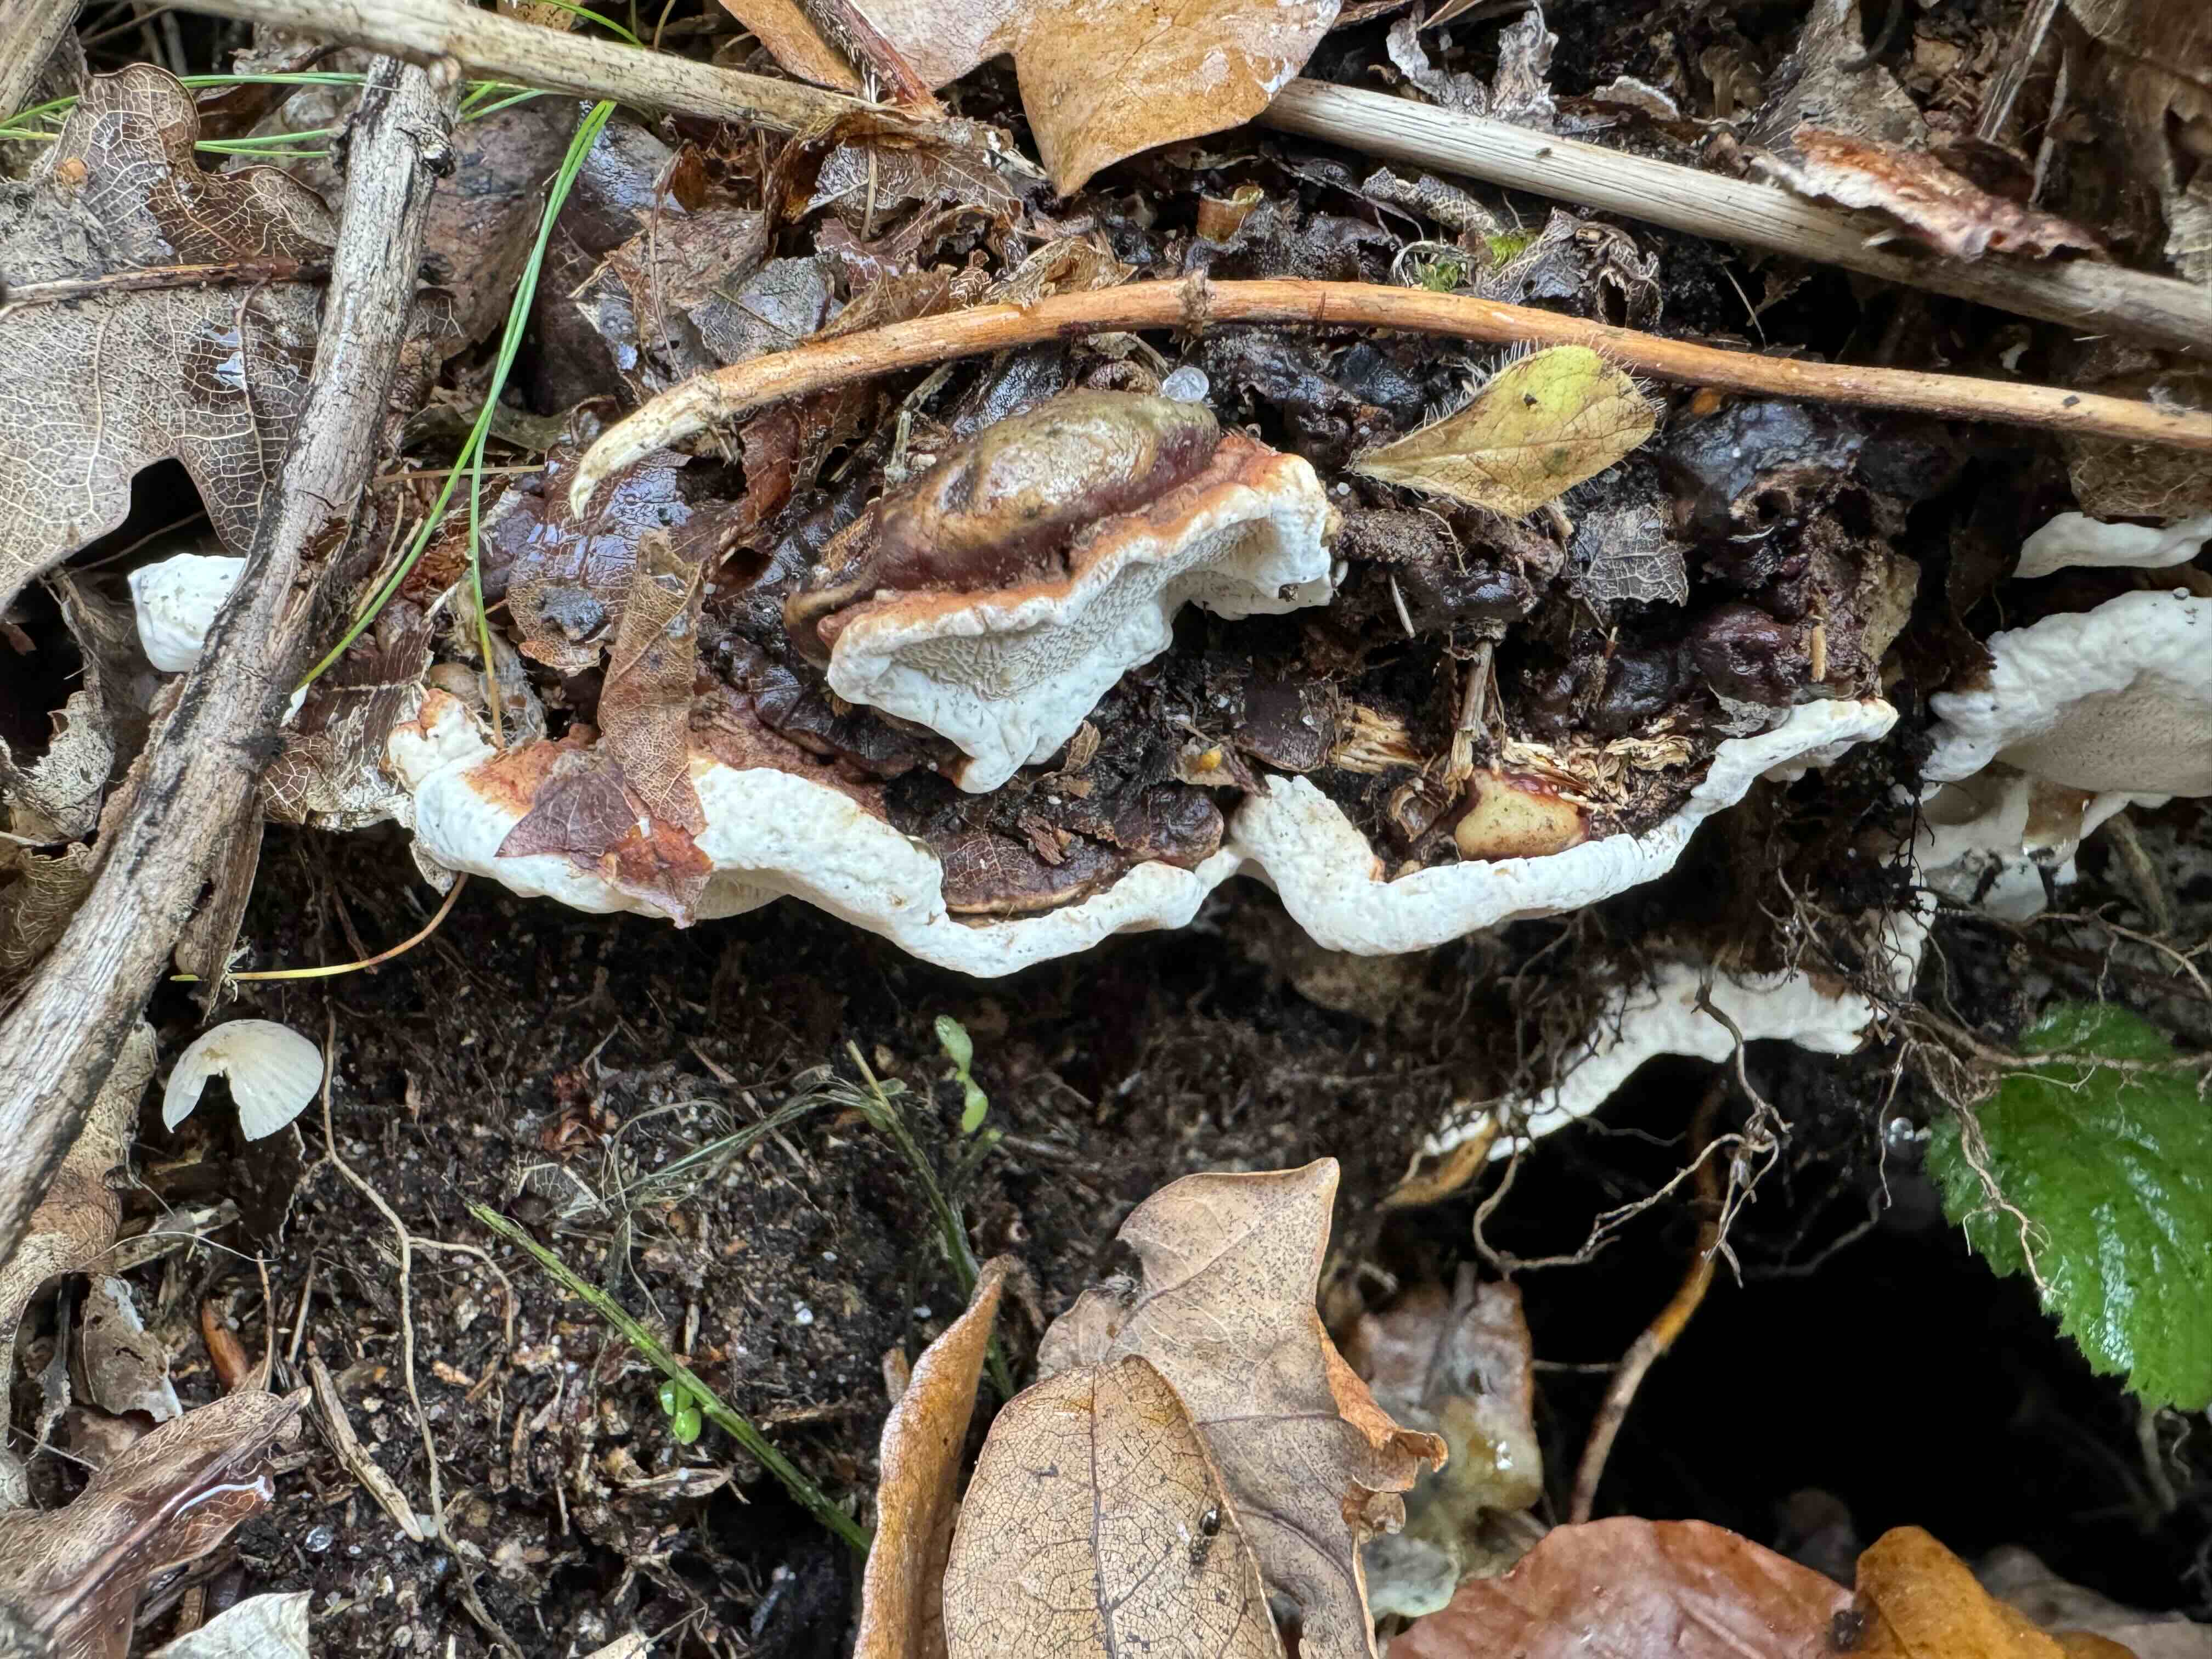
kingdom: Fungi
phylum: Basidiomycota
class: Agaricomycetes
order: Russulales
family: Bondarzewiaceae
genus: Heterobasidion
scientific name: Heterobasidion annosum
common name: almindelig rodfordærver
